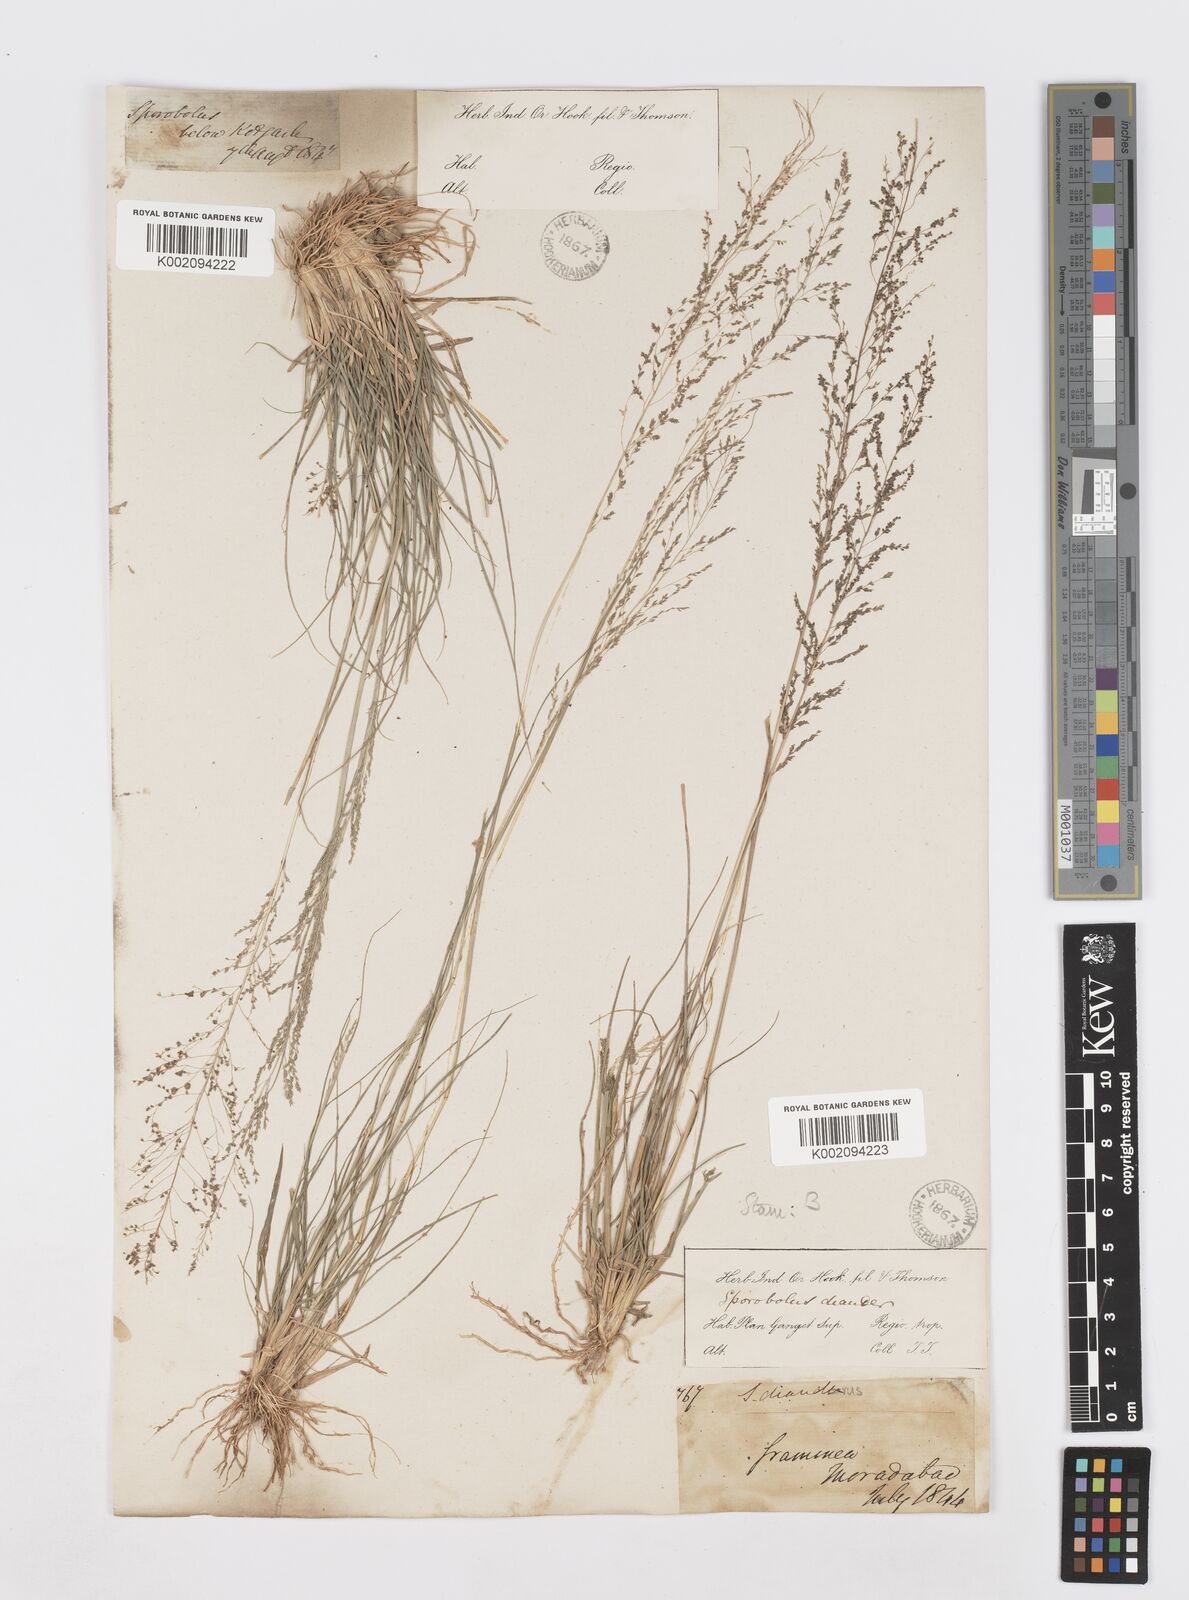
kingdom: Plantae
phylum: Tracheophyta
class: Liliopsida
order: Poales
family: Poaceae
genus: Sporobolus
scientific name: Sporobolus diandrus
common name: Tussock dropseed
